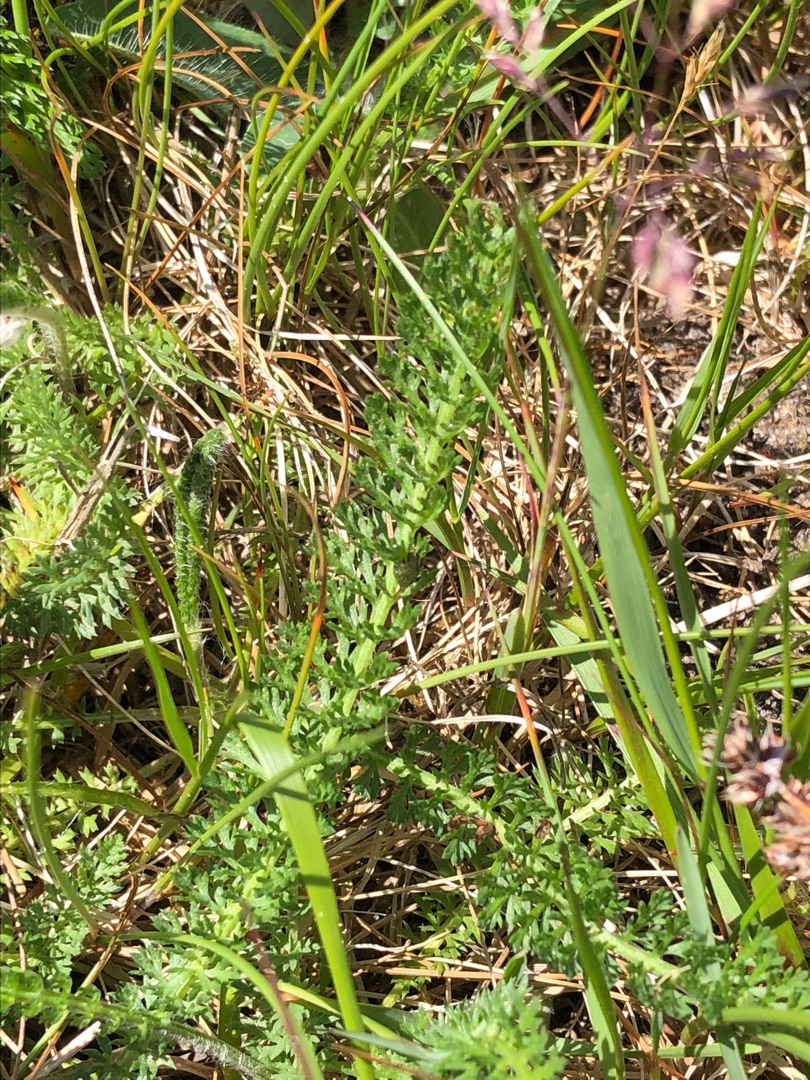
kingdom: Plantae
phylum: Tracheophyta
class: Magnoliopsida
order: Asterales
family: Asteraceae
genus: Achillea
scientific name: Achillea millefolium
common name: Almindelig røllike
